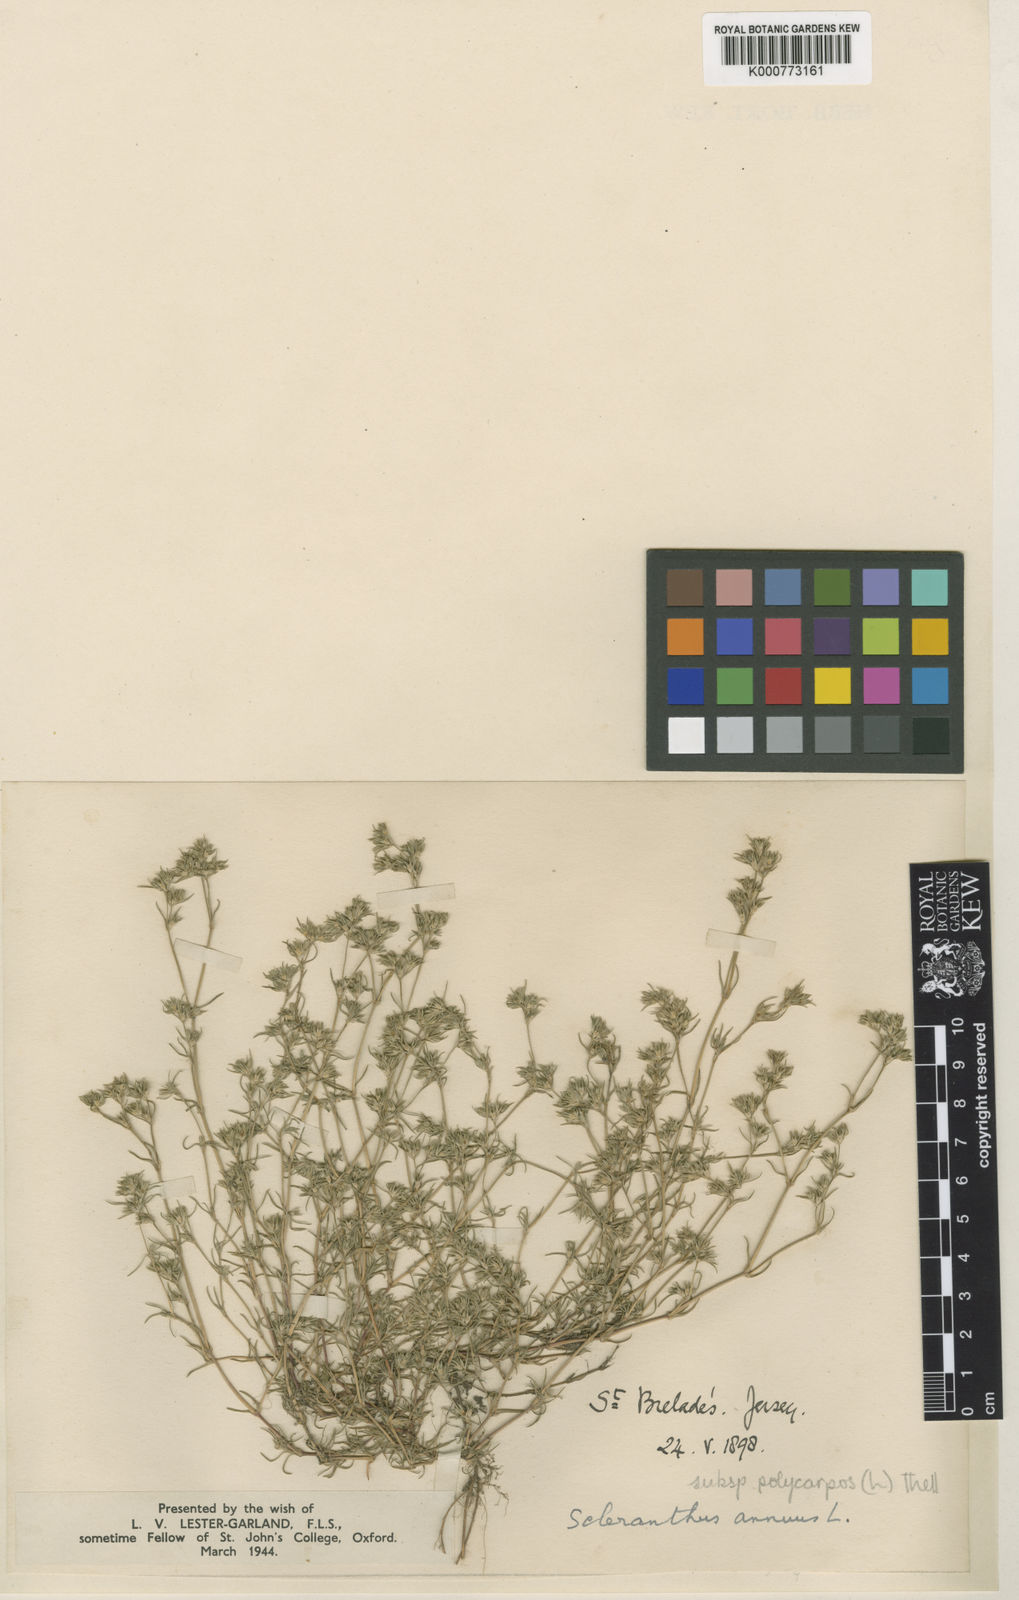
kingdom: Plantae
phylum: Tracheophyta
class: Magnoliopsida
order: Caryophyllales
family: Caryophyllaceae
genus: Scleranthus
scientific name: Scleranthus annuus
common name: Annual knawel
